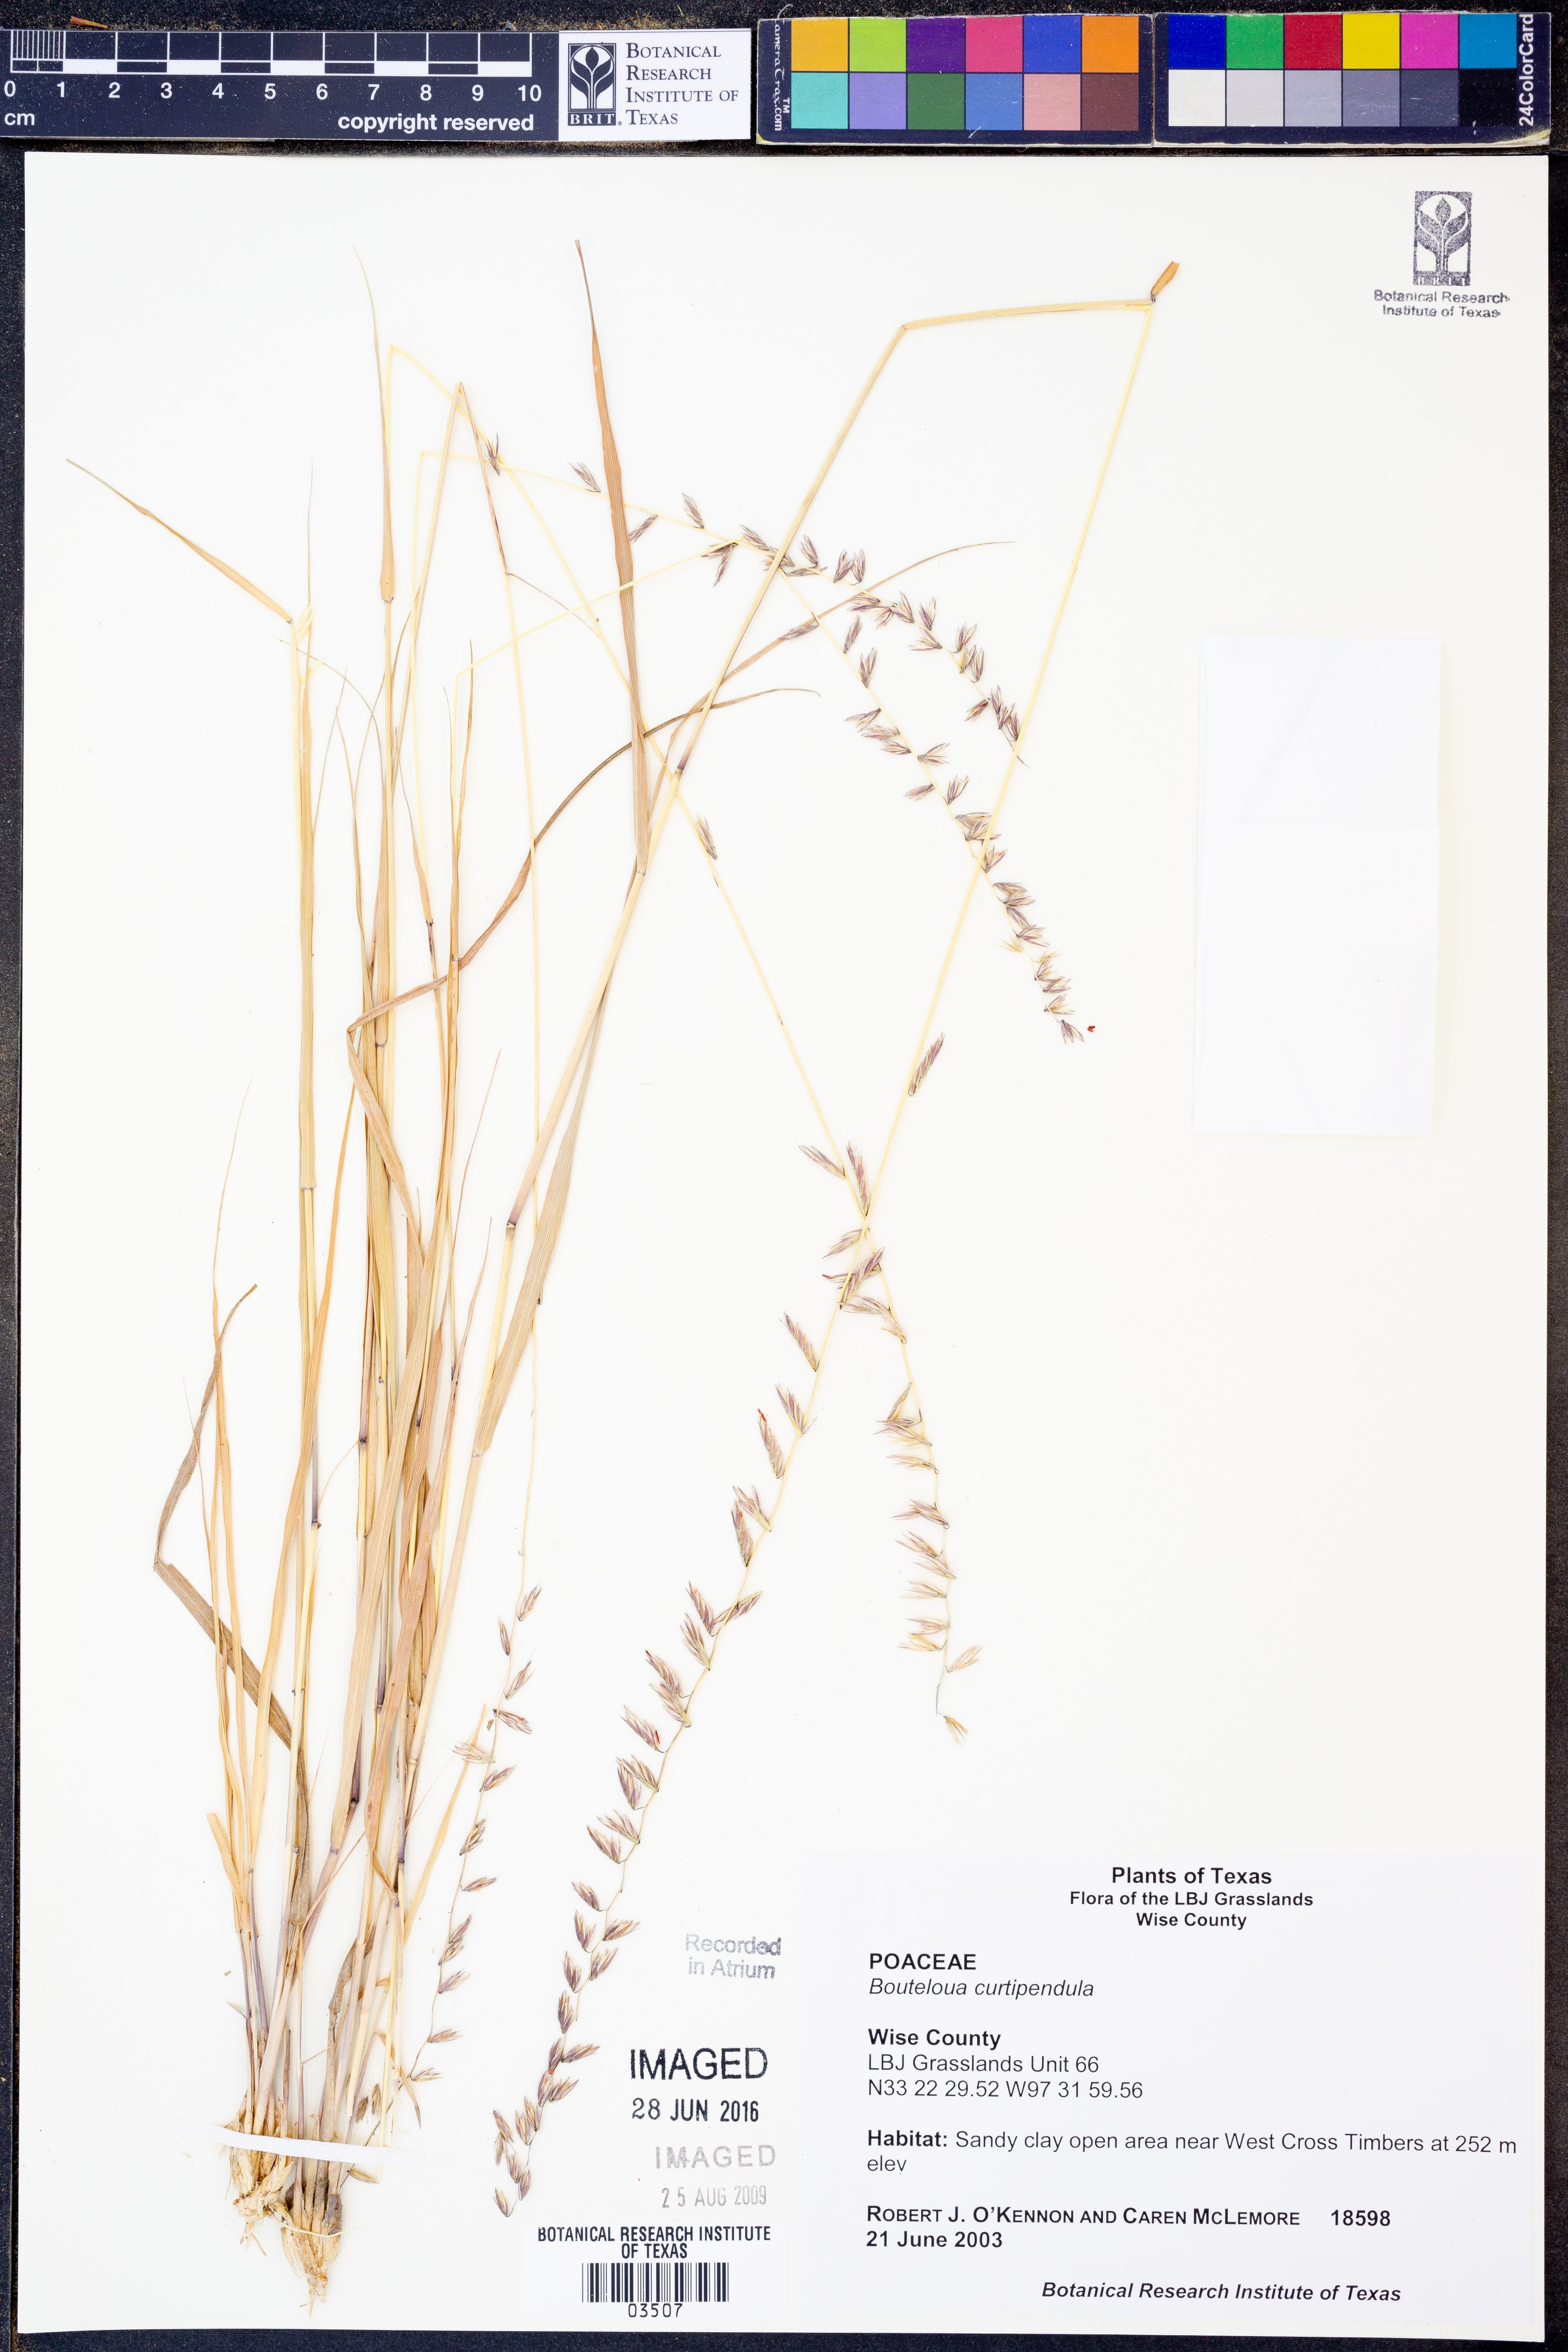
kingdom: Plantae
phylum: Tracheophyta
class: Liliopsida
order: Poales
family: Poaceae
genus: Bouteloua
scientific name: Bouteloua curtipendula
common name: Side-oats grama
